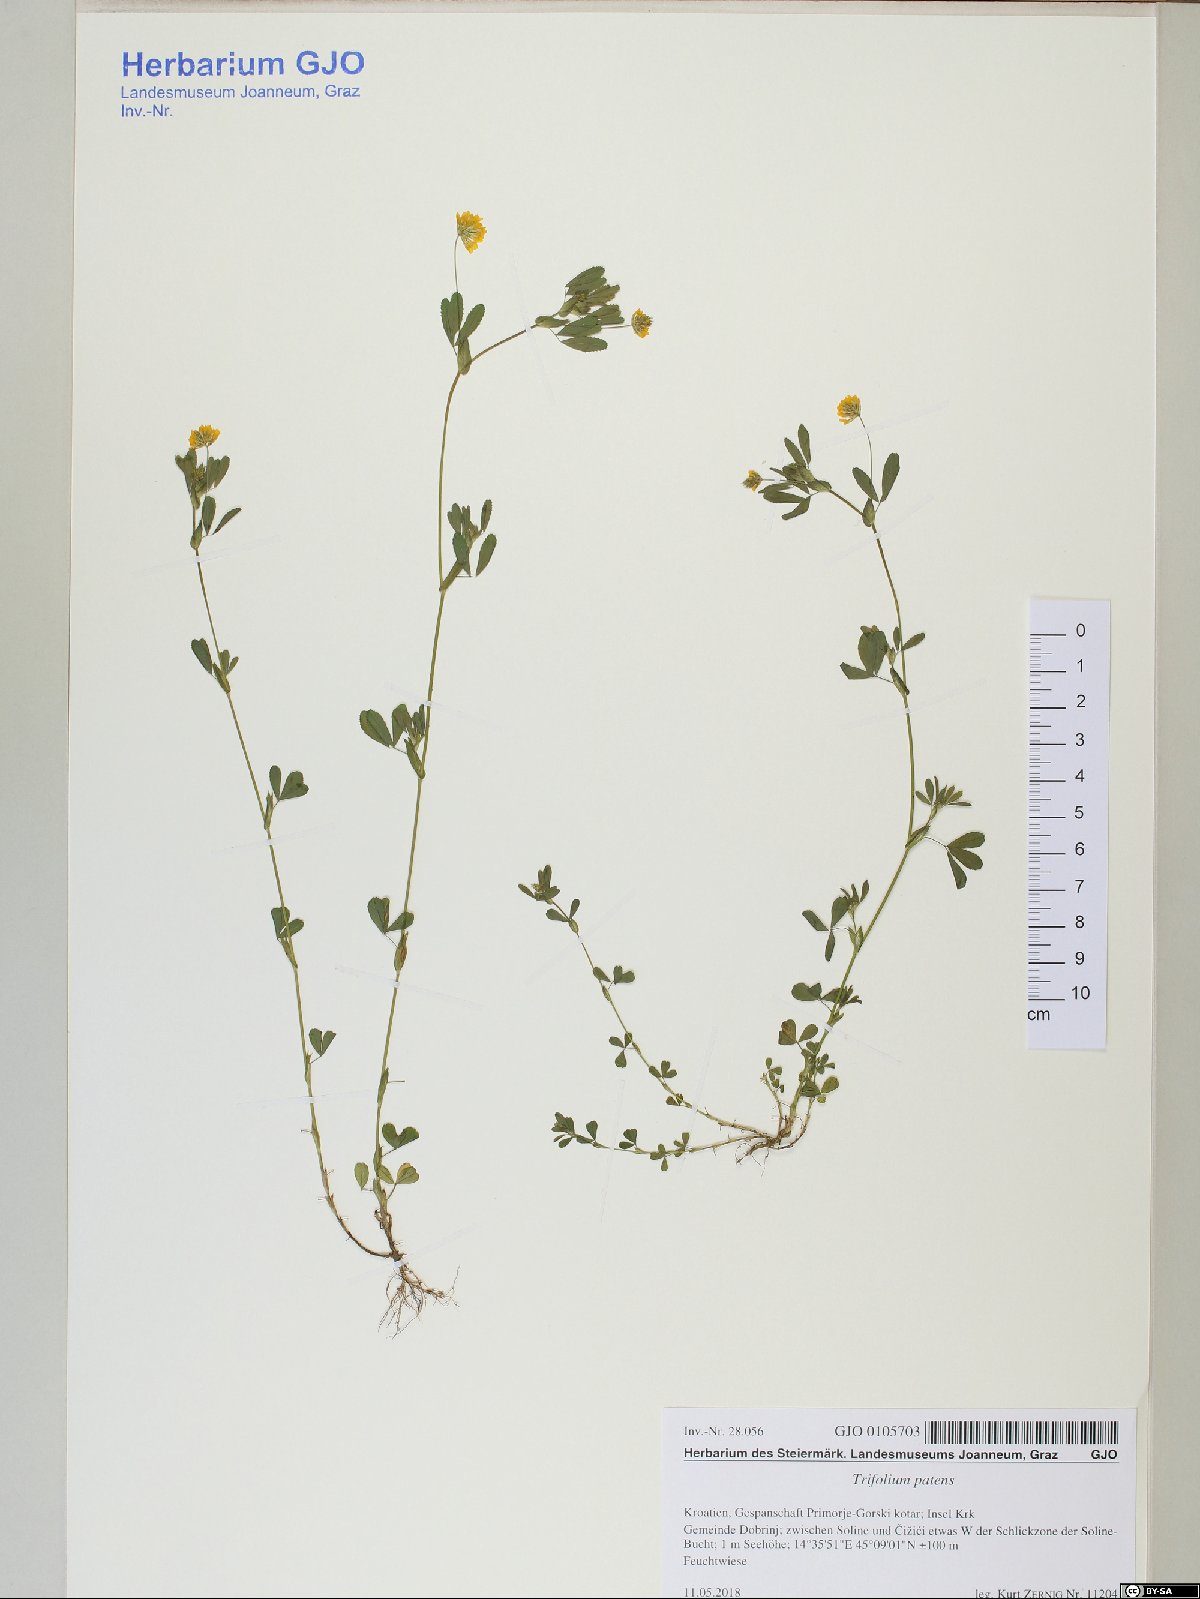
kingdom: Plantae
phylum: Tracheophyta
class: Magnoliopsida
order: Fabales
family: Fabaceae
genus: Trifolium
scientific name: Trifolium patens
